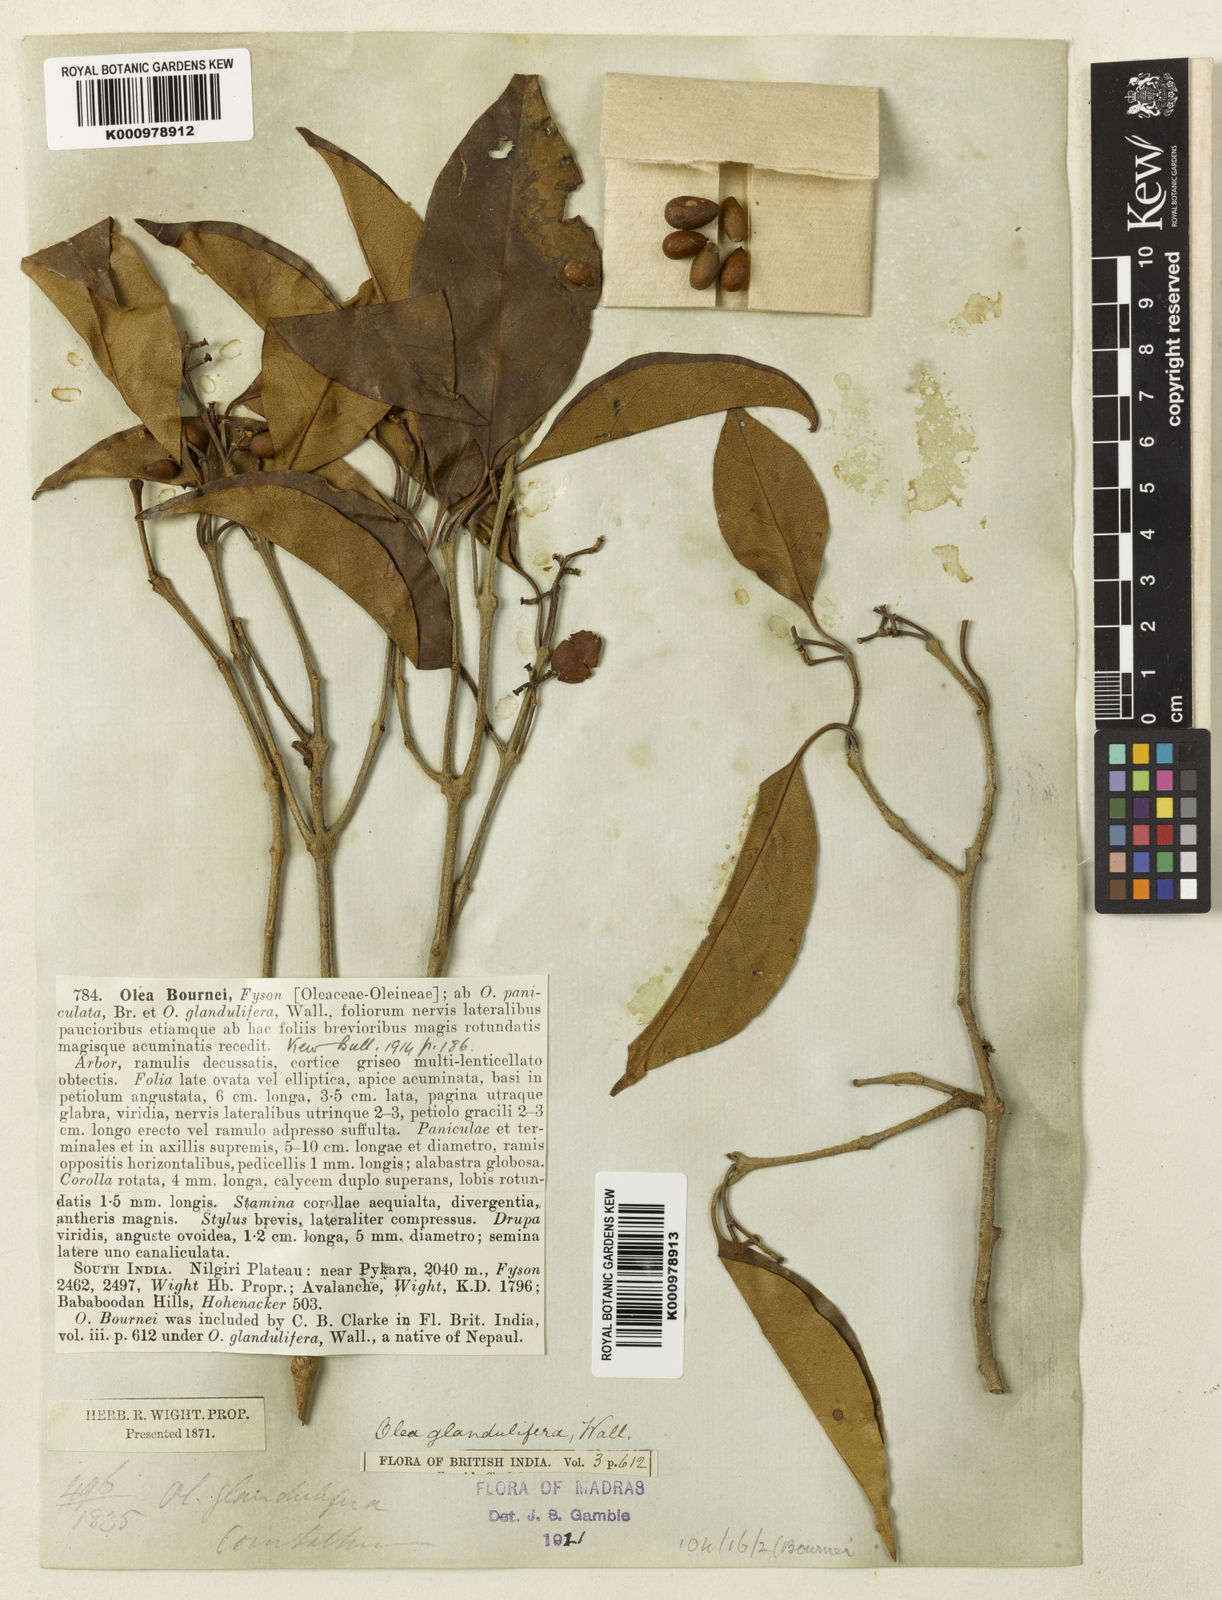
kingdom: Plantae
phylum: Tracheophyta
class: Magnoliopsida
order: Lamiales
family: Oleaceae
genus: Olea
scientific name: Olea paniculata
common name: Australian olive
